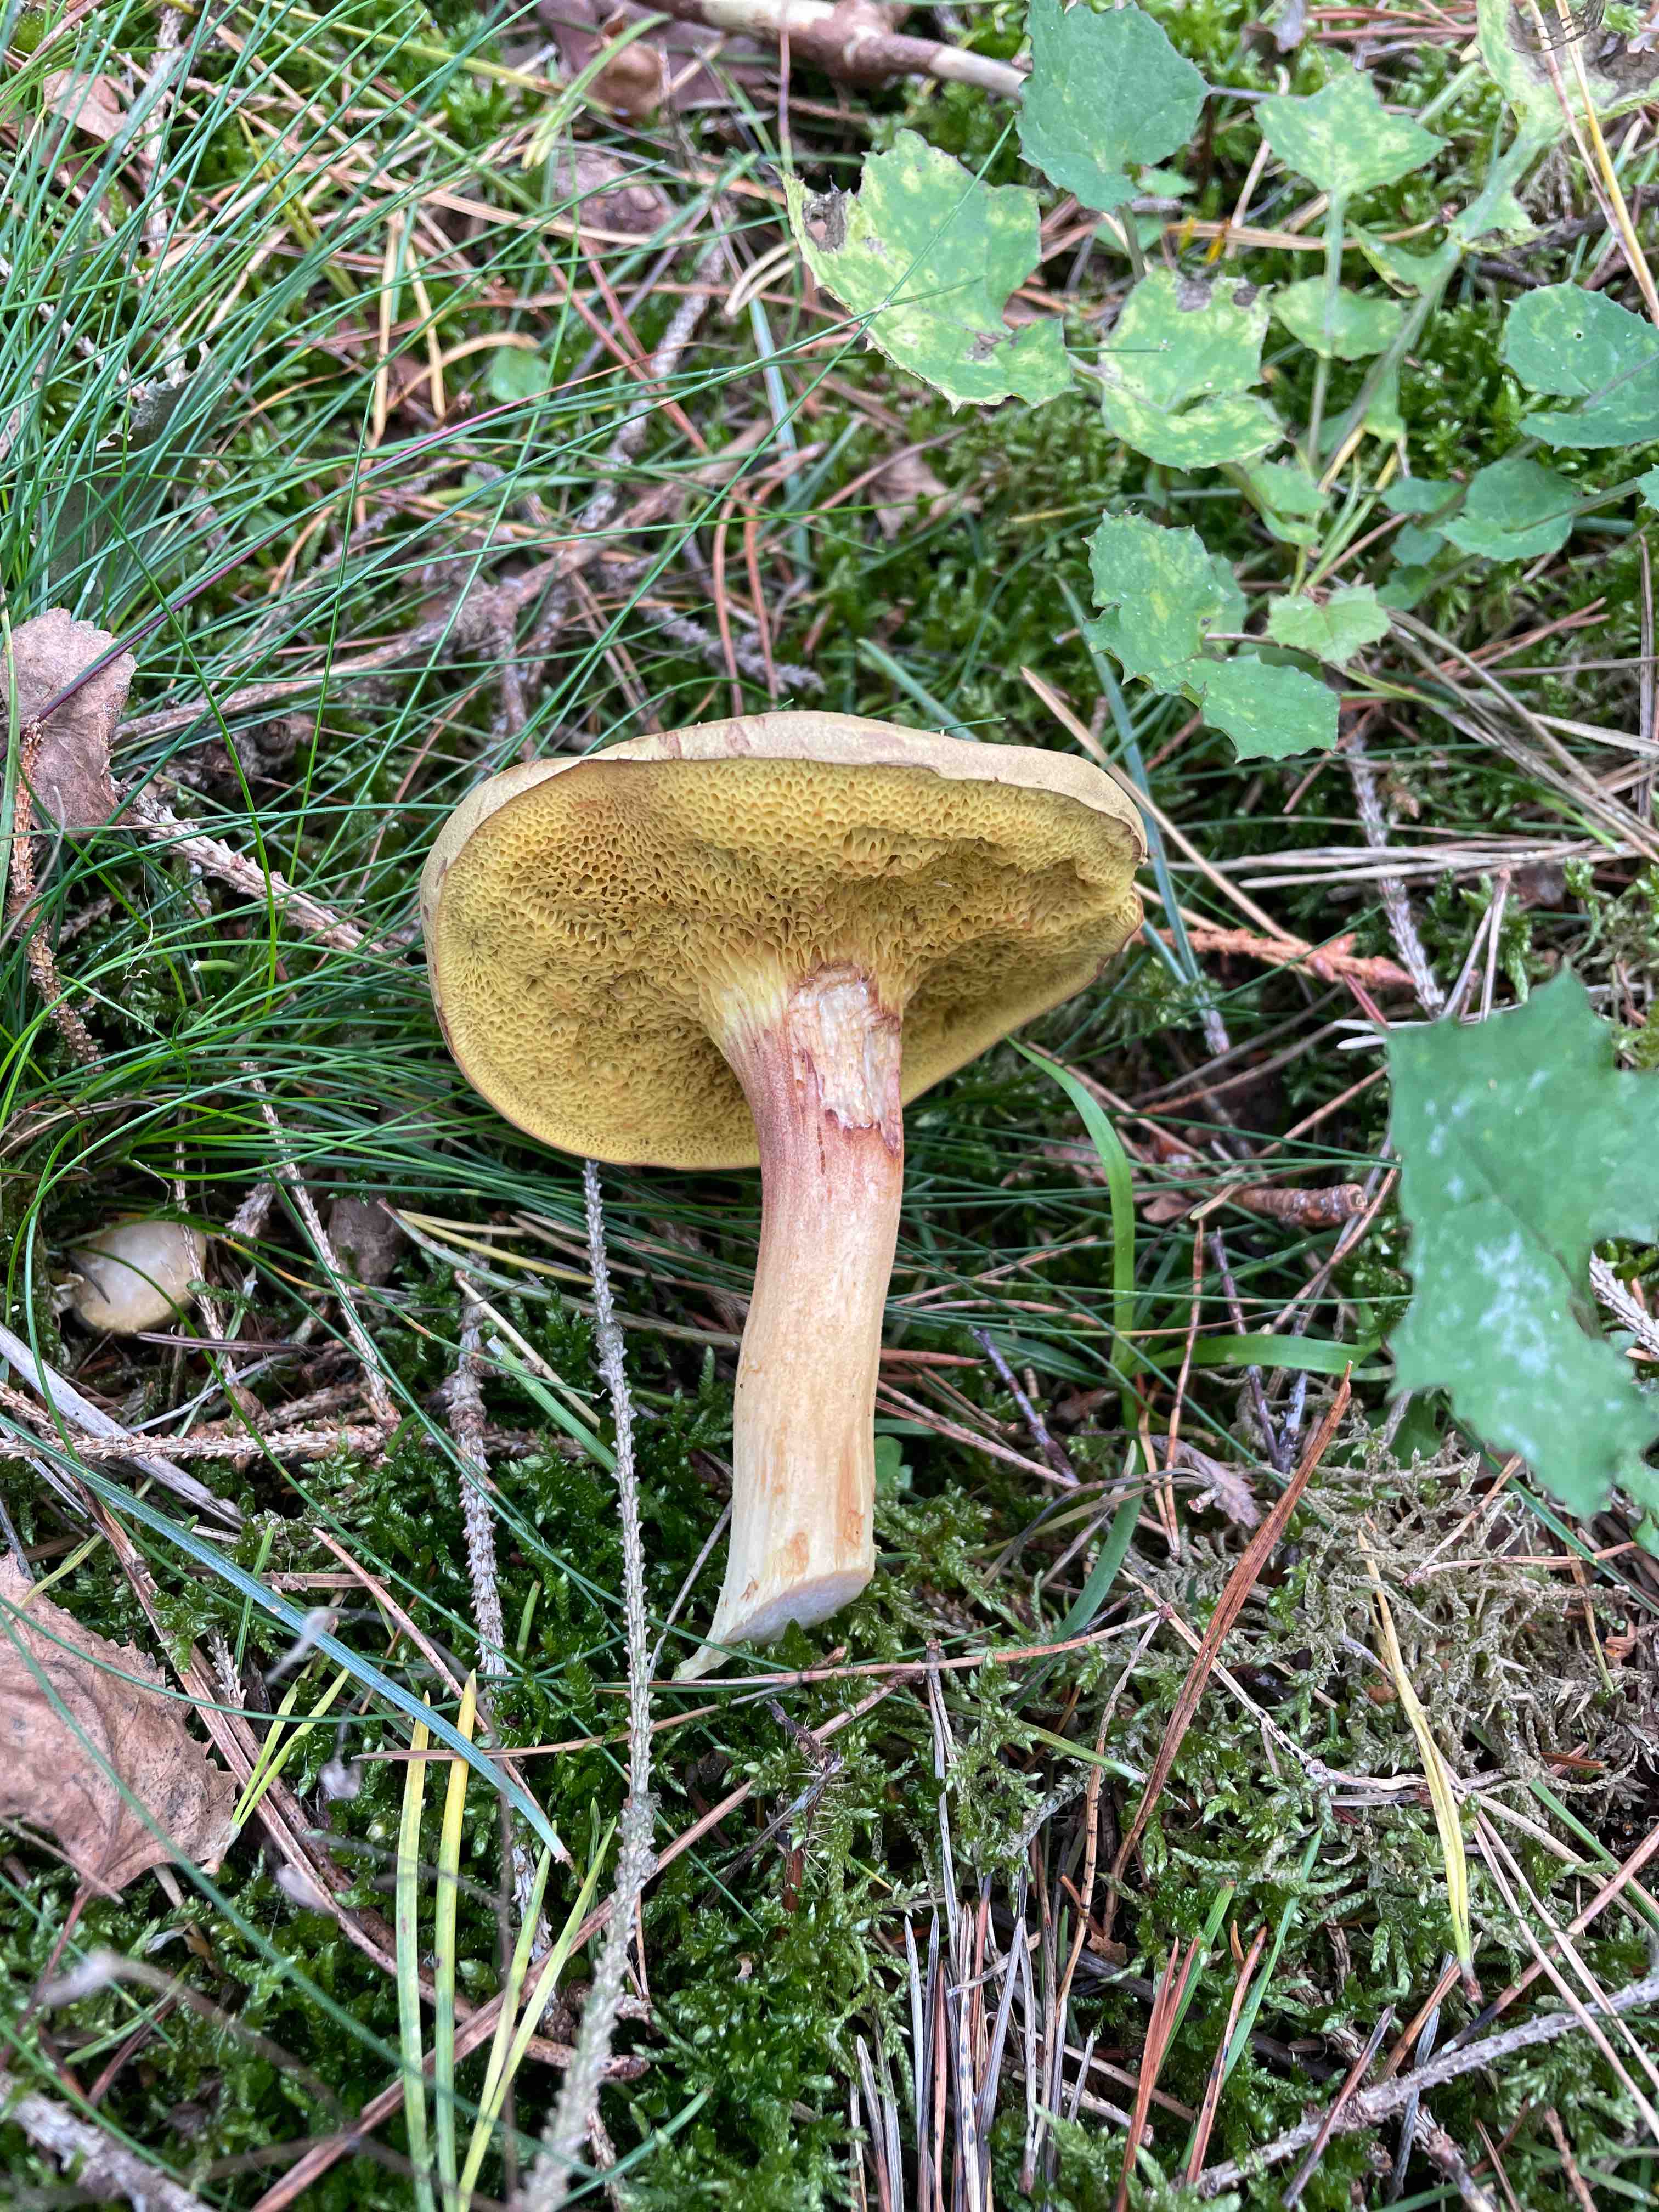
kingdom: Fungi
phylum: Basidiomycota
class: Agaricomycetes
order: Boletales
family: Boletaceae
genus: Xerocomus
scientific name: Xerocomus
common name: filtrørhat
